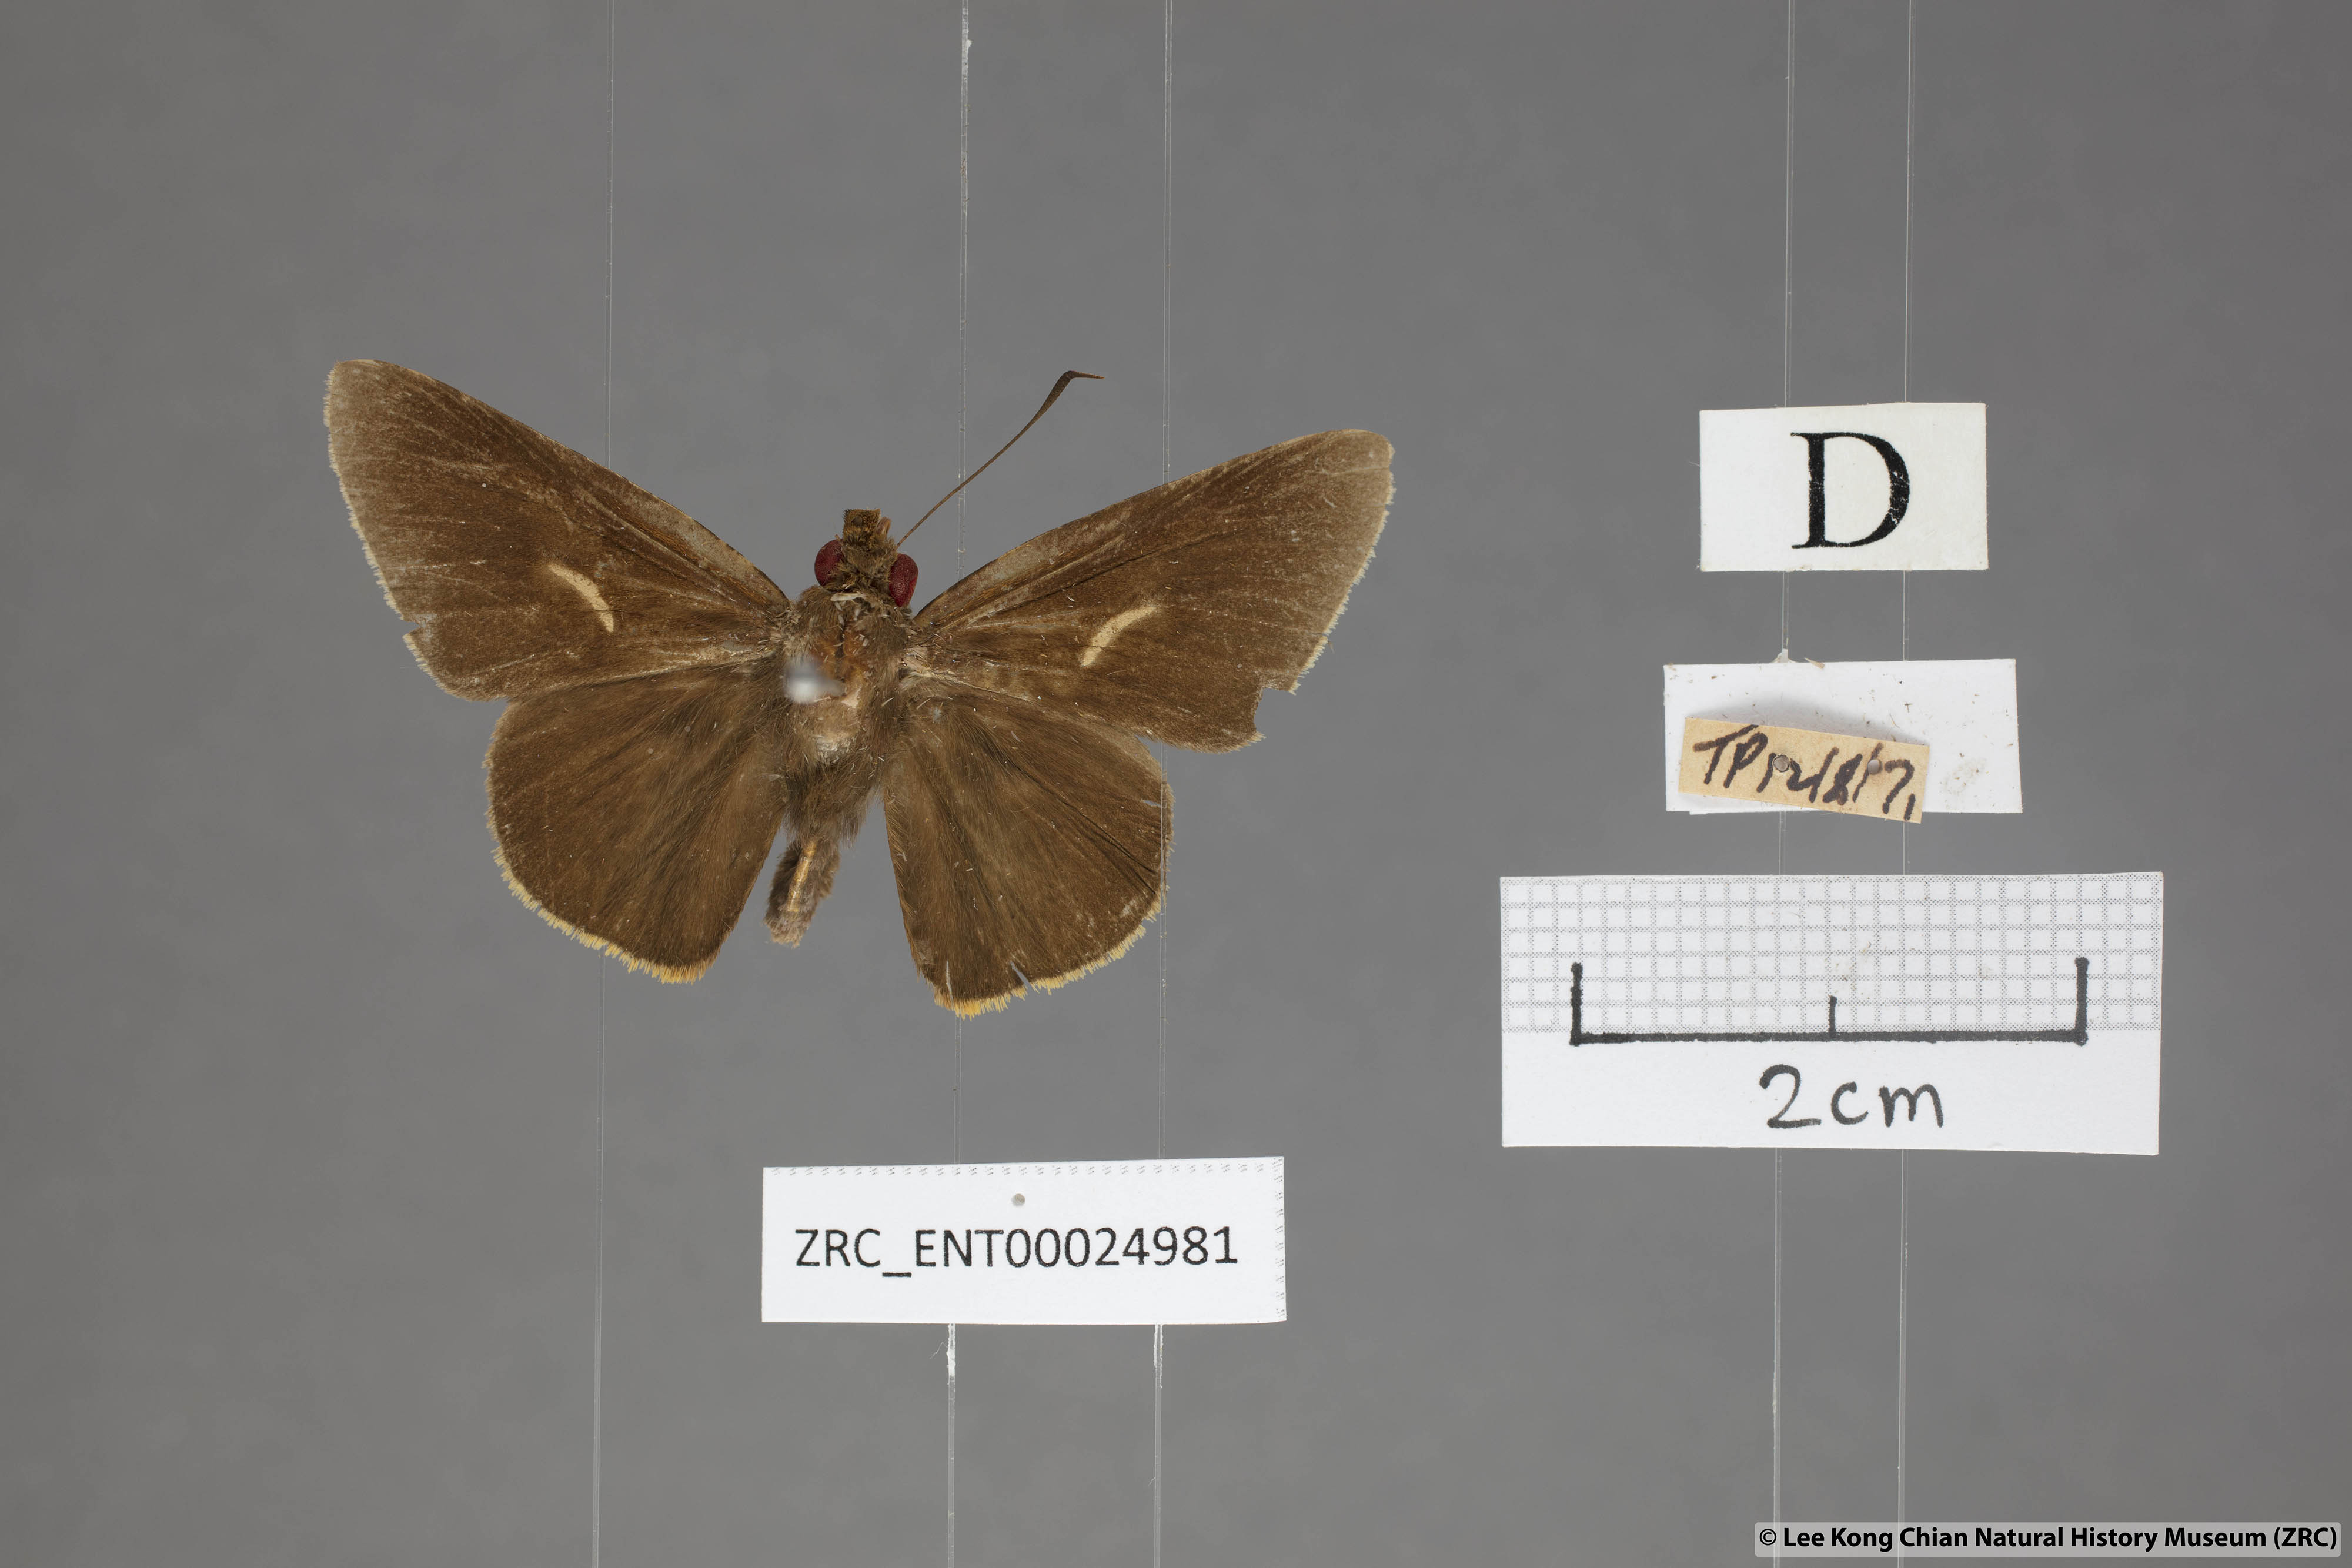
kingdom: Animalia
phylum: Arthropoda
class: Insecta
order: Lepidoptera
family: Hesperiidae
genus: Matapa
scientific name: Matapa druna
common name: Grey-brand redeye
